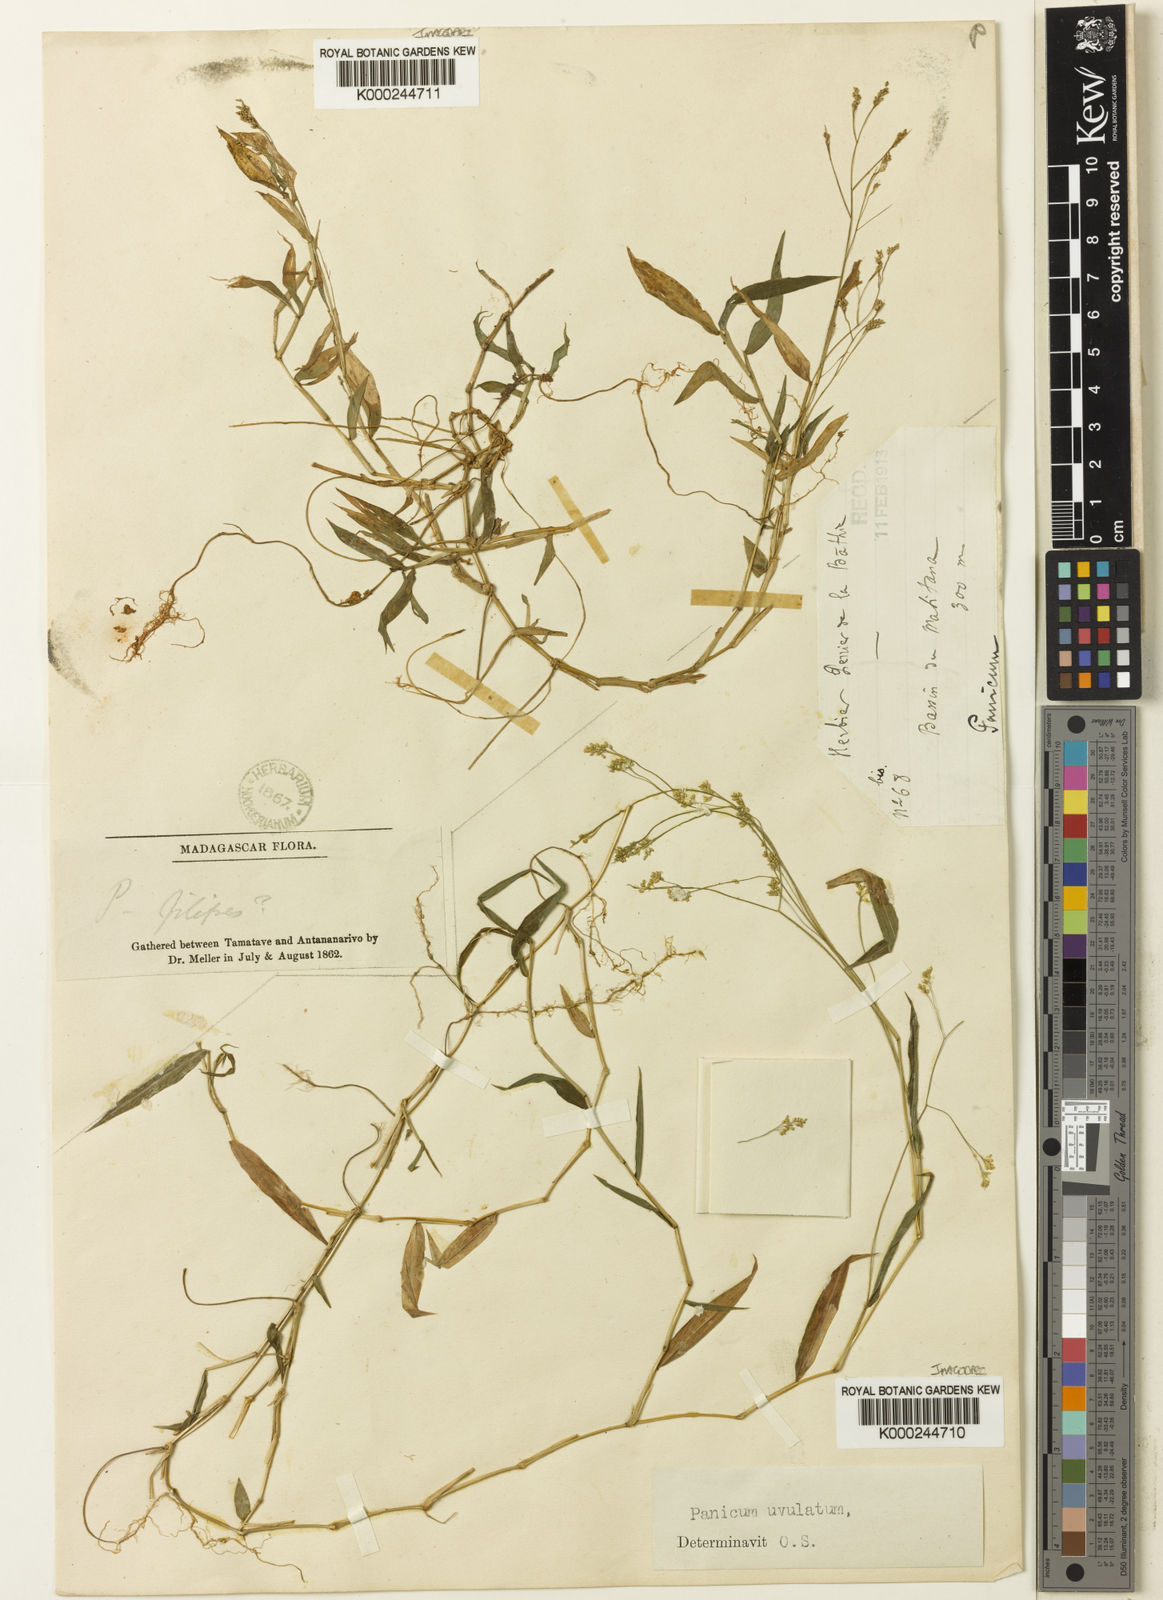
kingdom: Plantae
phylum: Tracheophyta
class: Liliopsida
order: Poales
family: Poaceae
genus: Panicum
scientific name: Panicum mitopus
